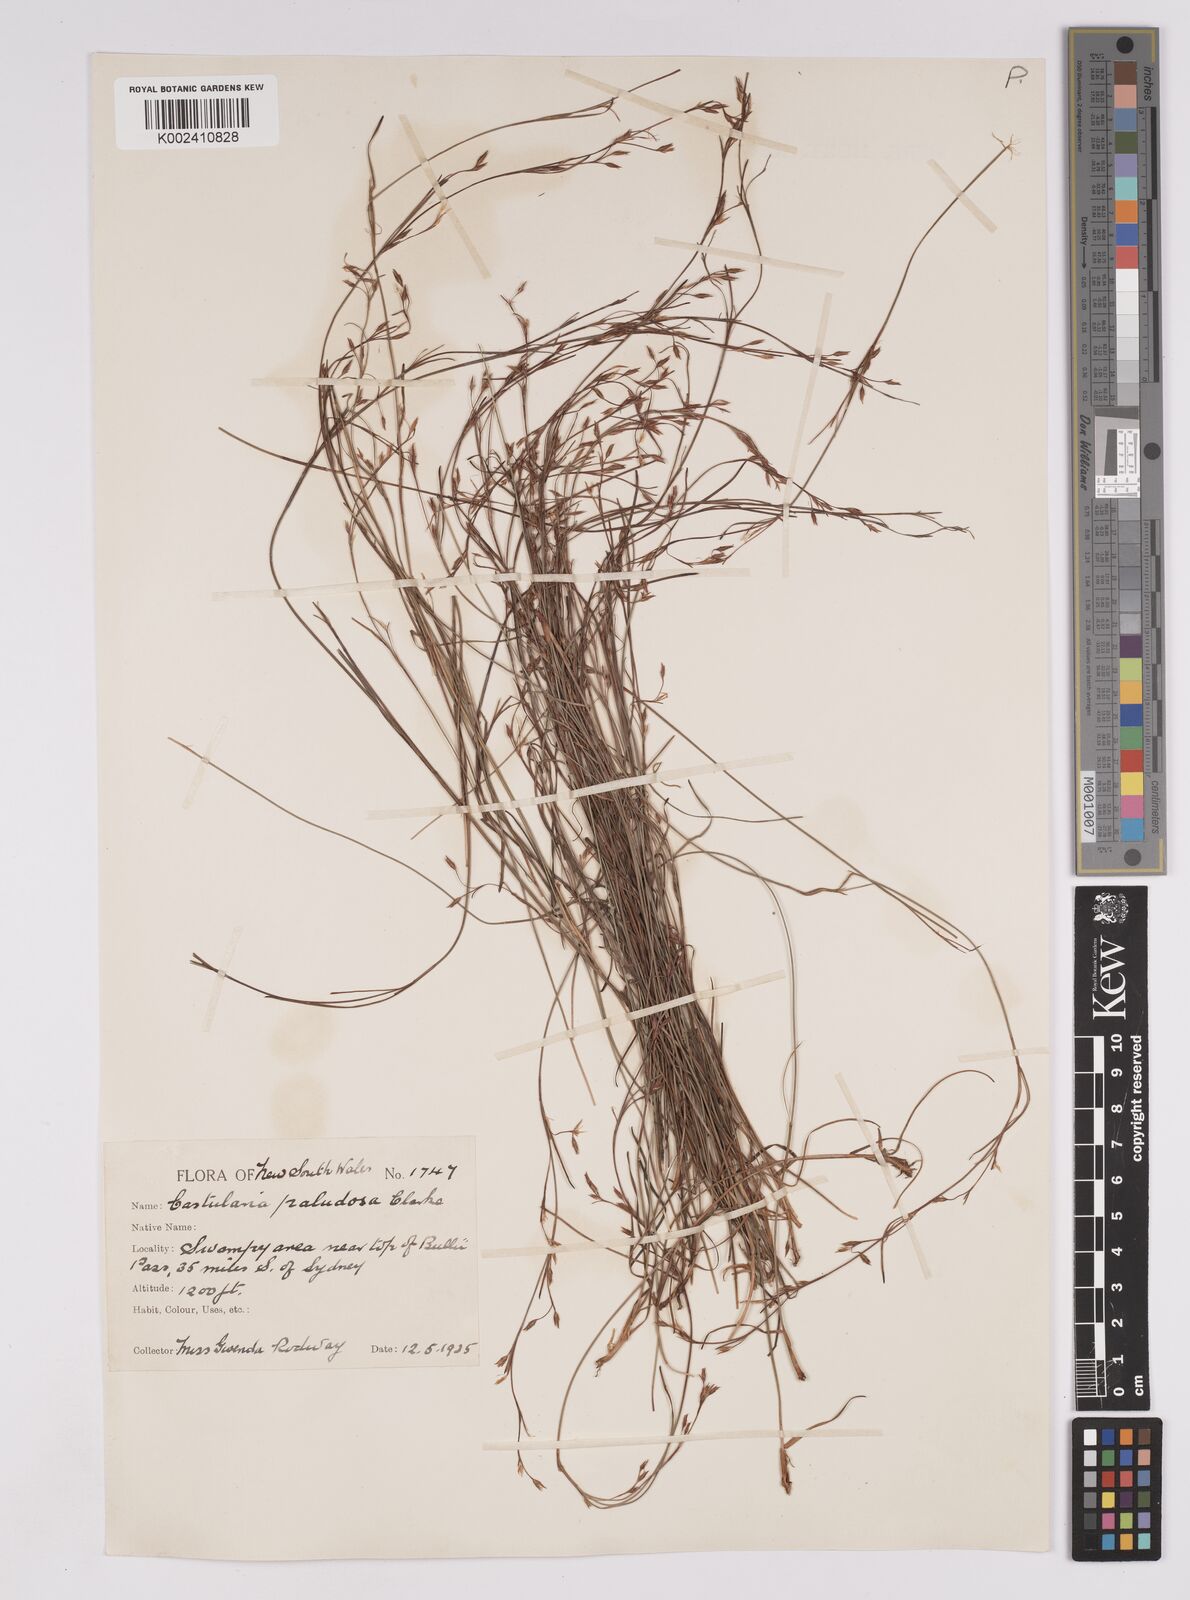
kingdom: Plantae
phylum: Tracheophyta
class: Liliopsida
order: Poales
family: Cyperaceae
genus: Anthelepis
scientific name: Anthelepis paludosa
